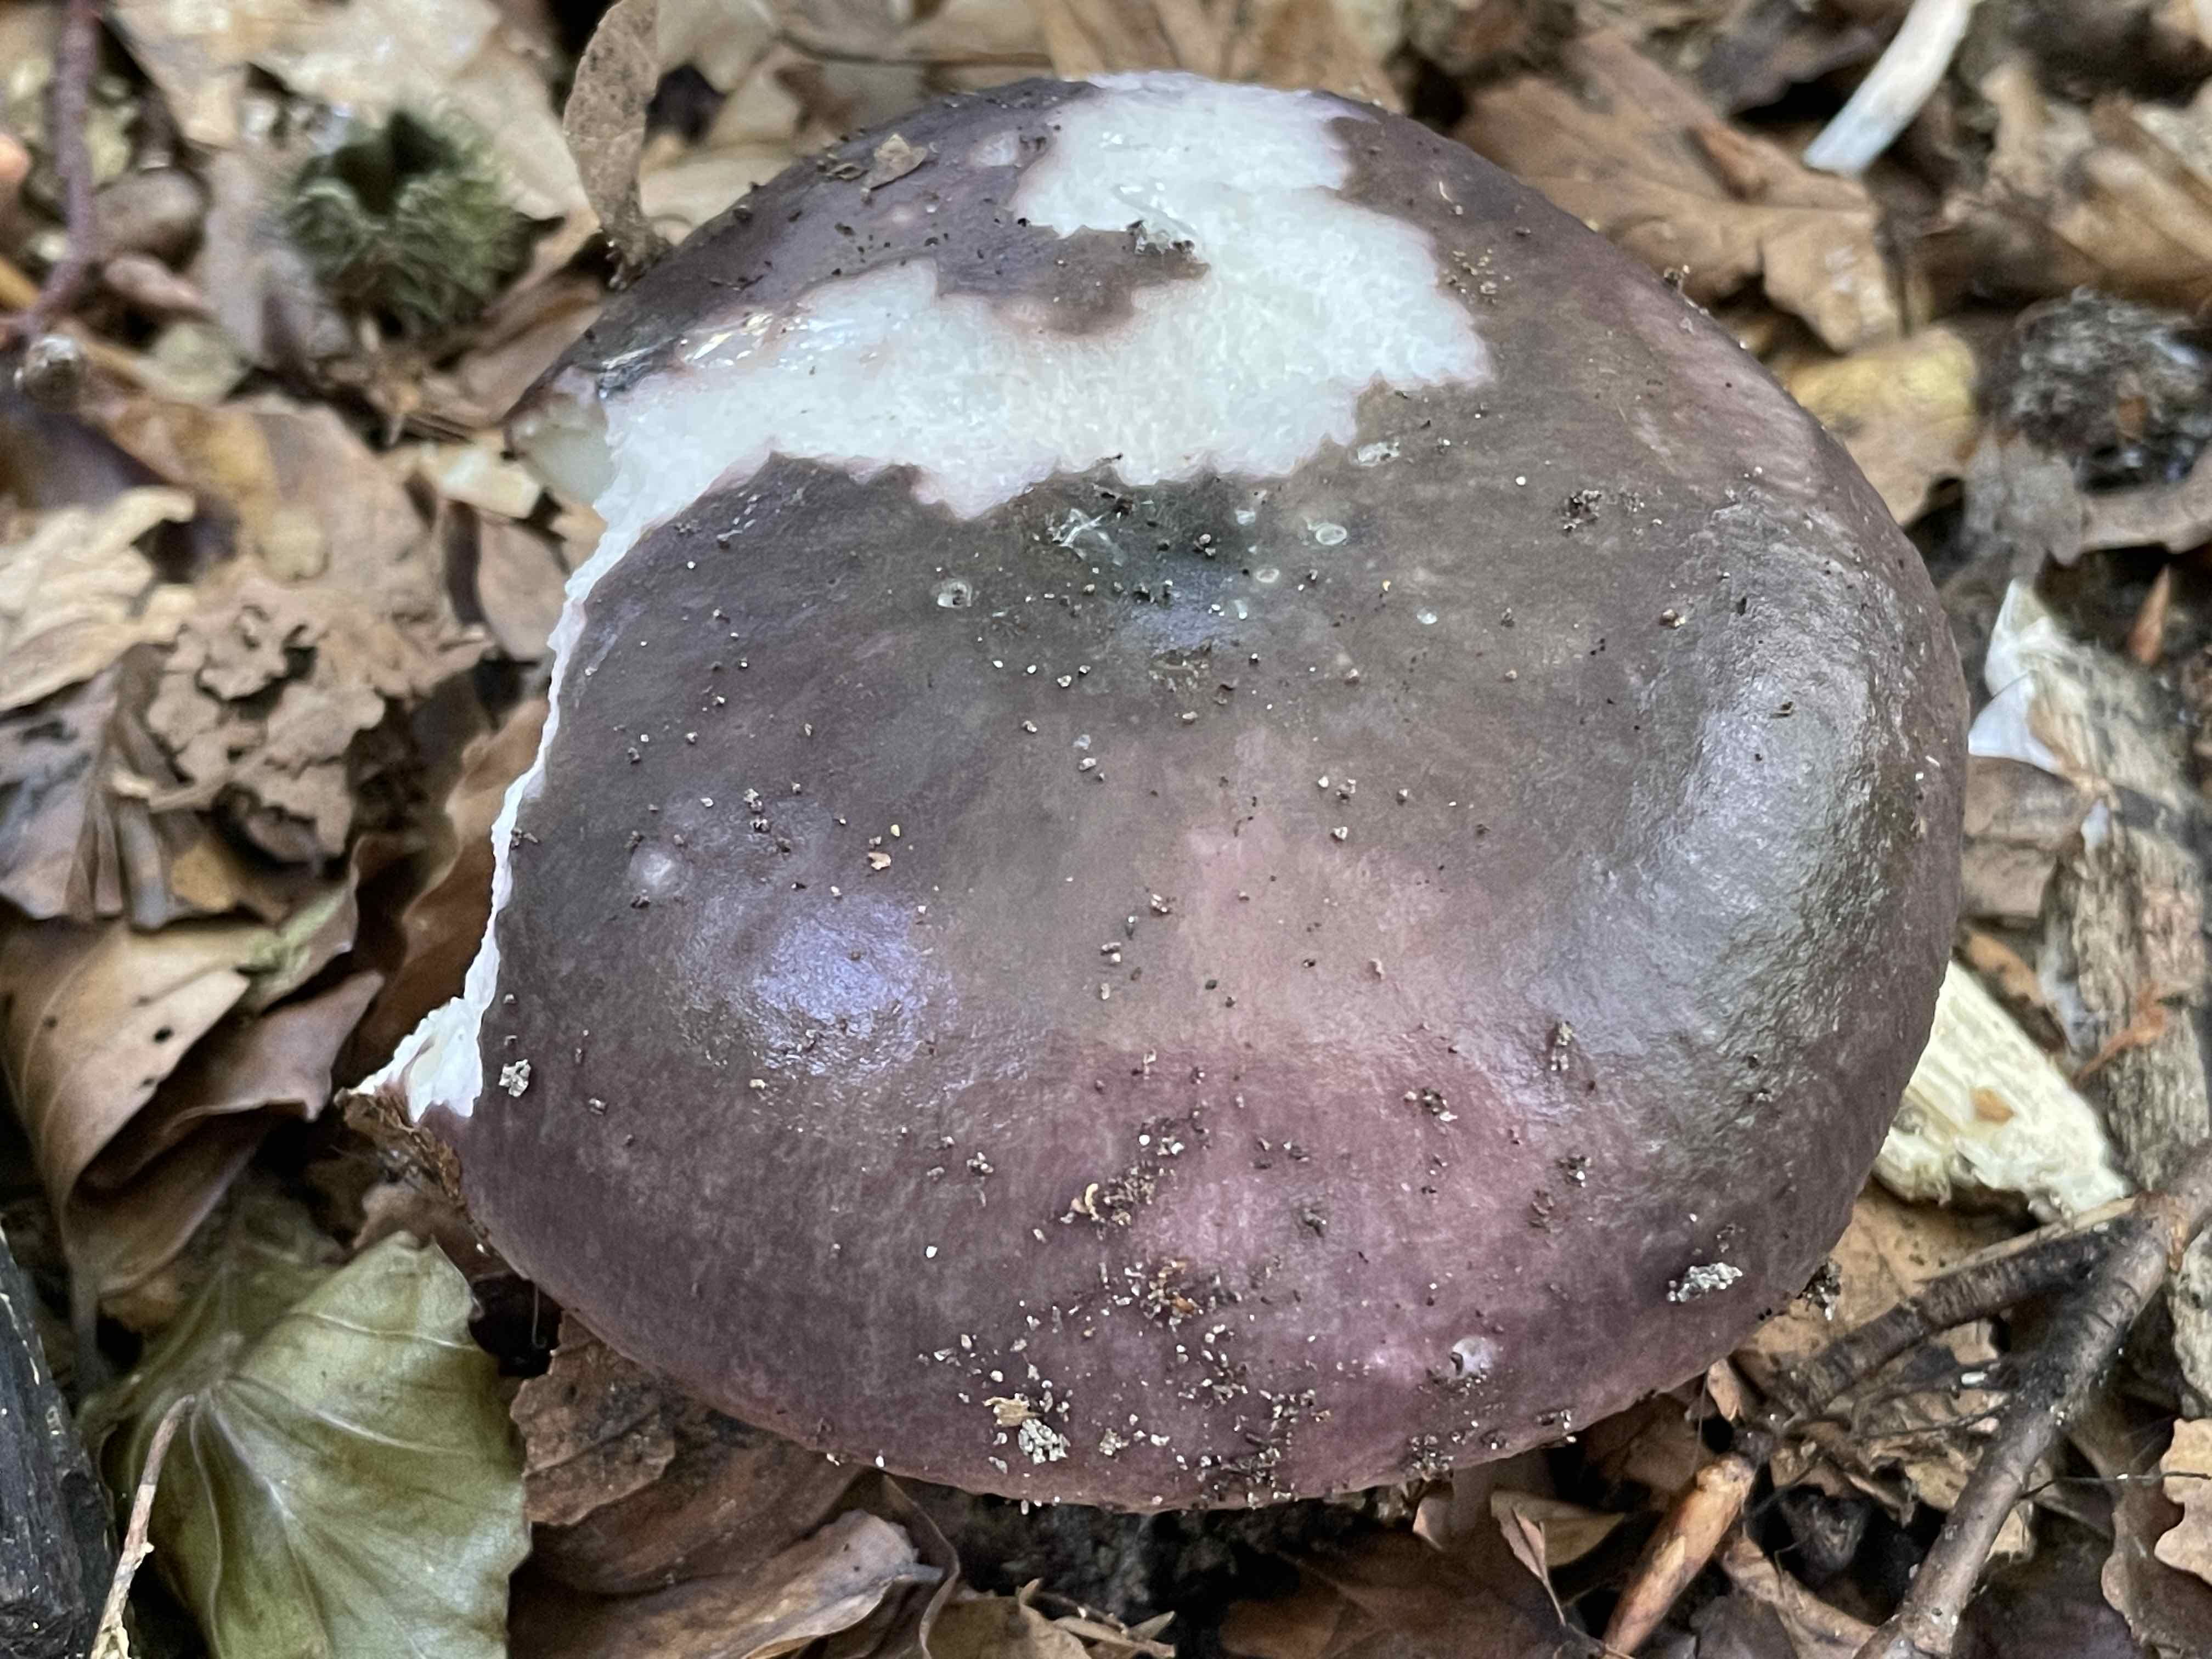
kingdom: Fungi
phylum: Basidiomycota
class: Agaricomycetes
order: Russulales
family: Russulaceae
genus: Russula
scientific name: Russula cyanoxantha
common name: broget skørhat
